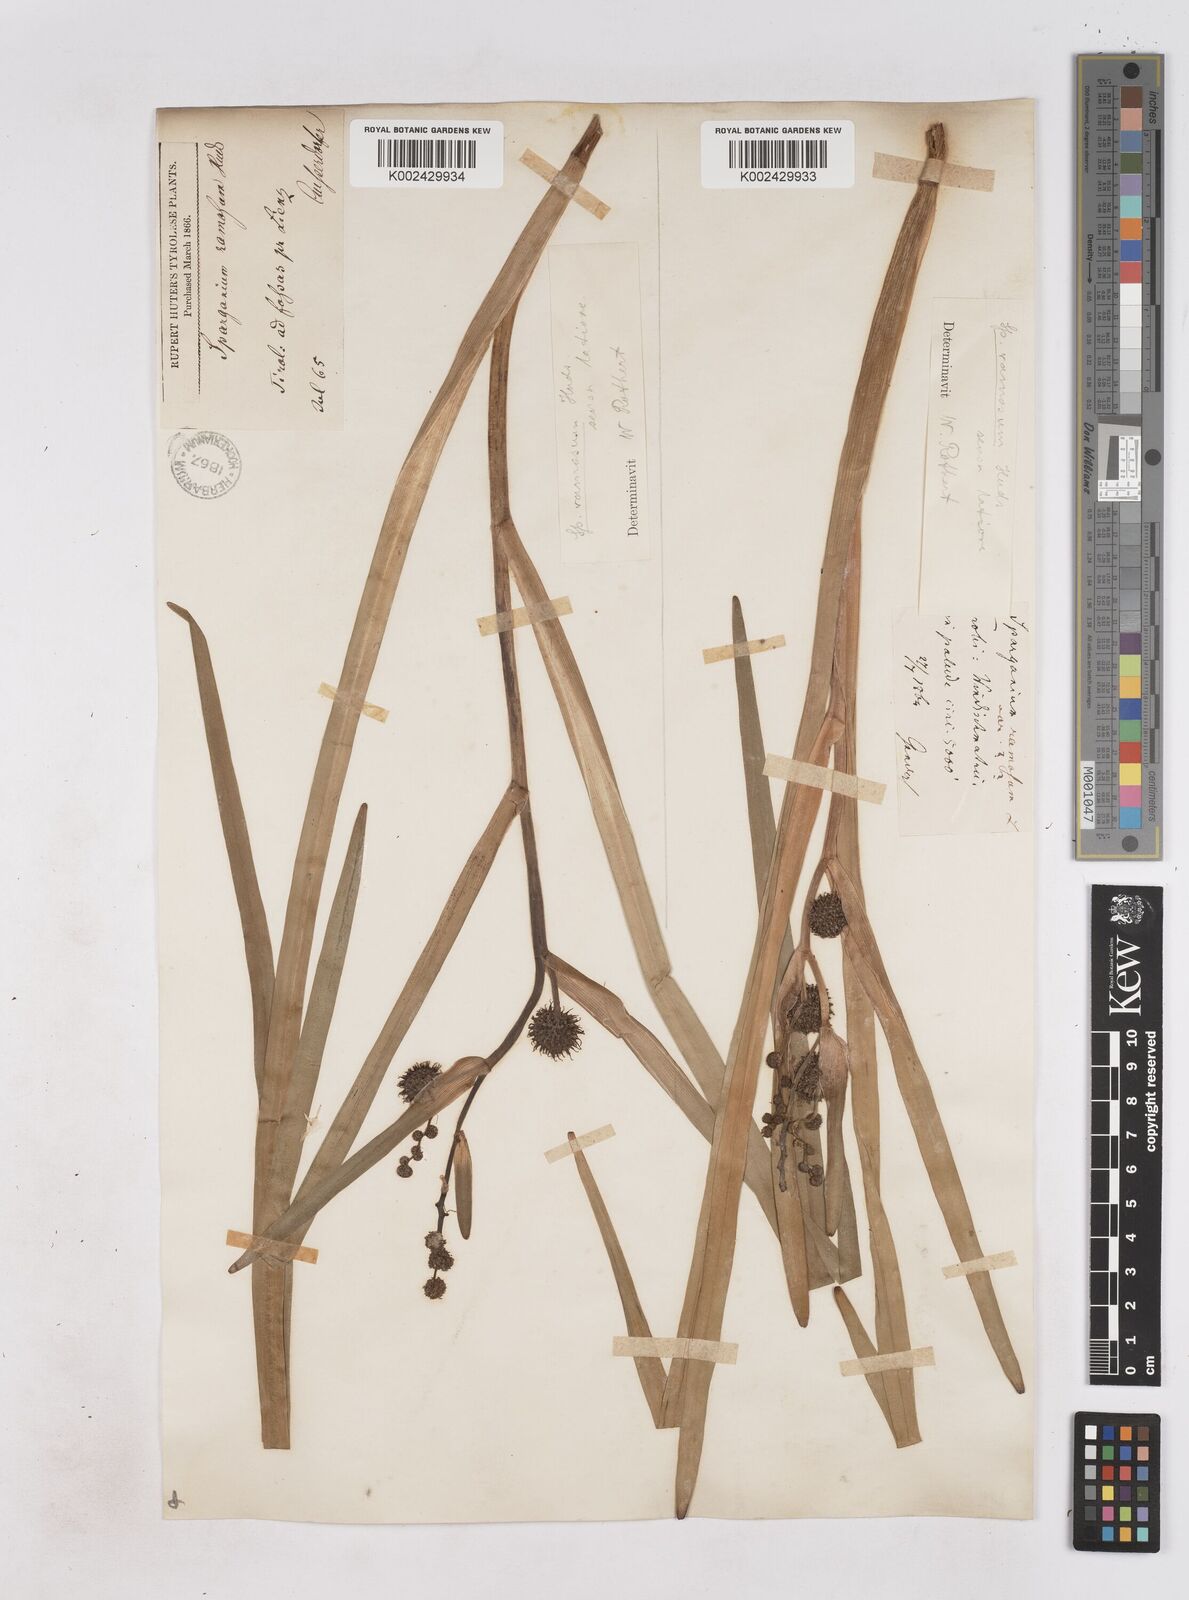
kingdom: Plantae
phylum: Tracheophyta
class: Liliopsida
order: Poales
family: Typhaceae
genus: Sparganium
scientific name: Sparganium erectum
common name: Branched bur-reed
